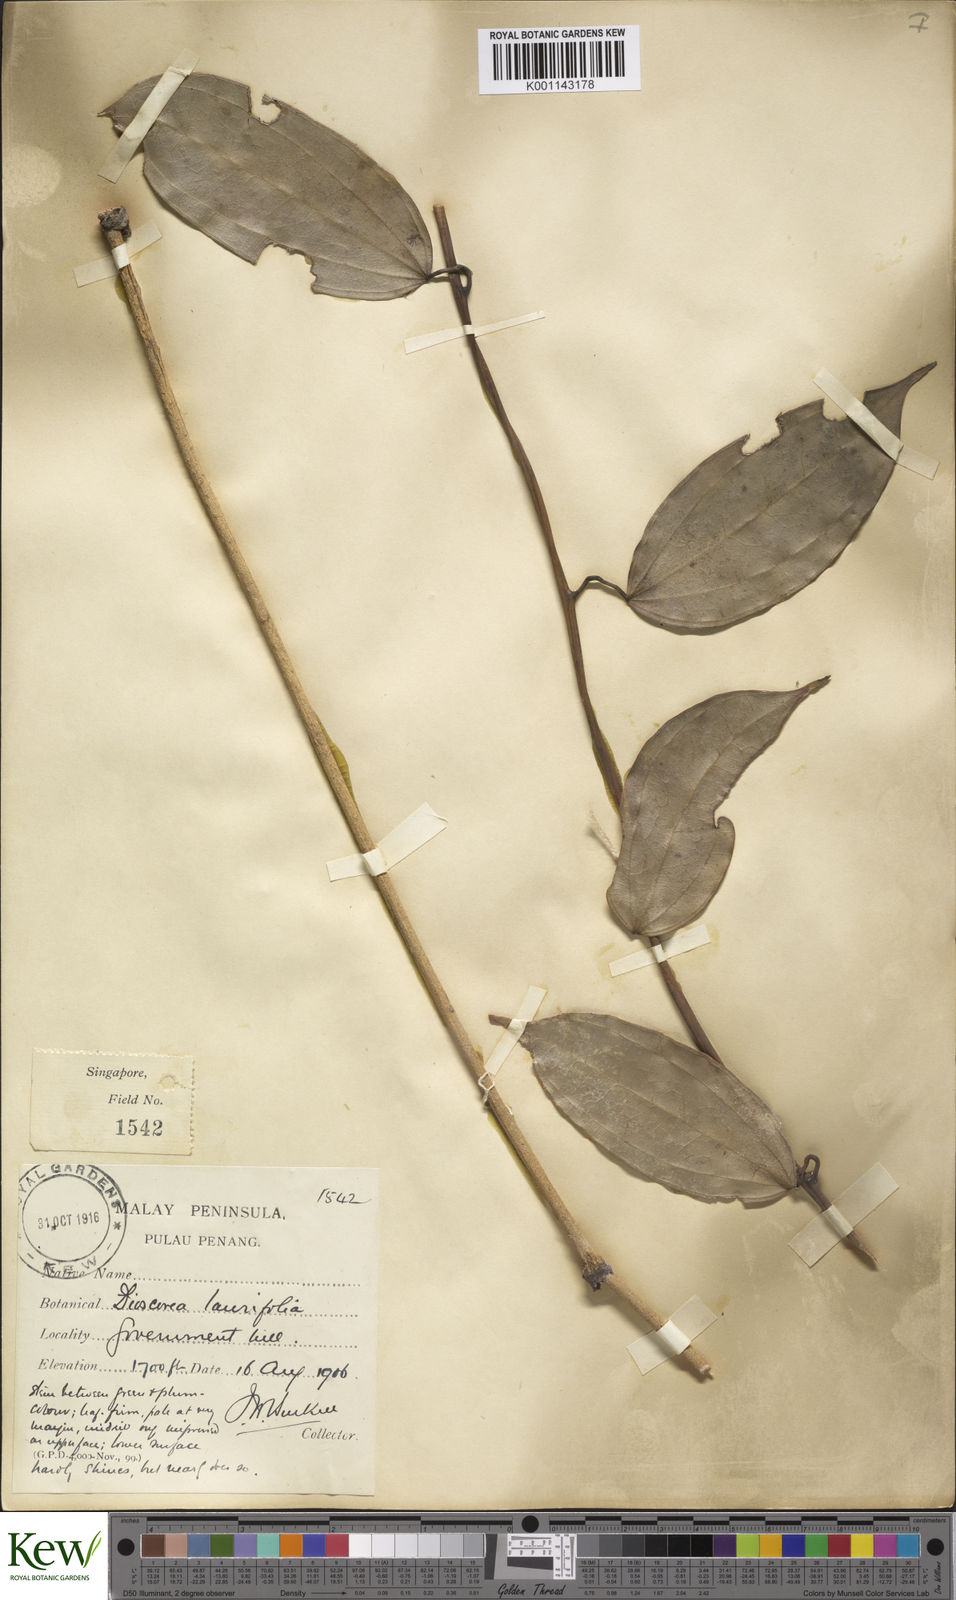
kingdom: Plantae
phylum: Tracheophyta
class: Liliopsida
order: Dioscoreales
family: Dioscoreaceae
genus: Dioscorea
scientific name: Dioscorea laurifolia
